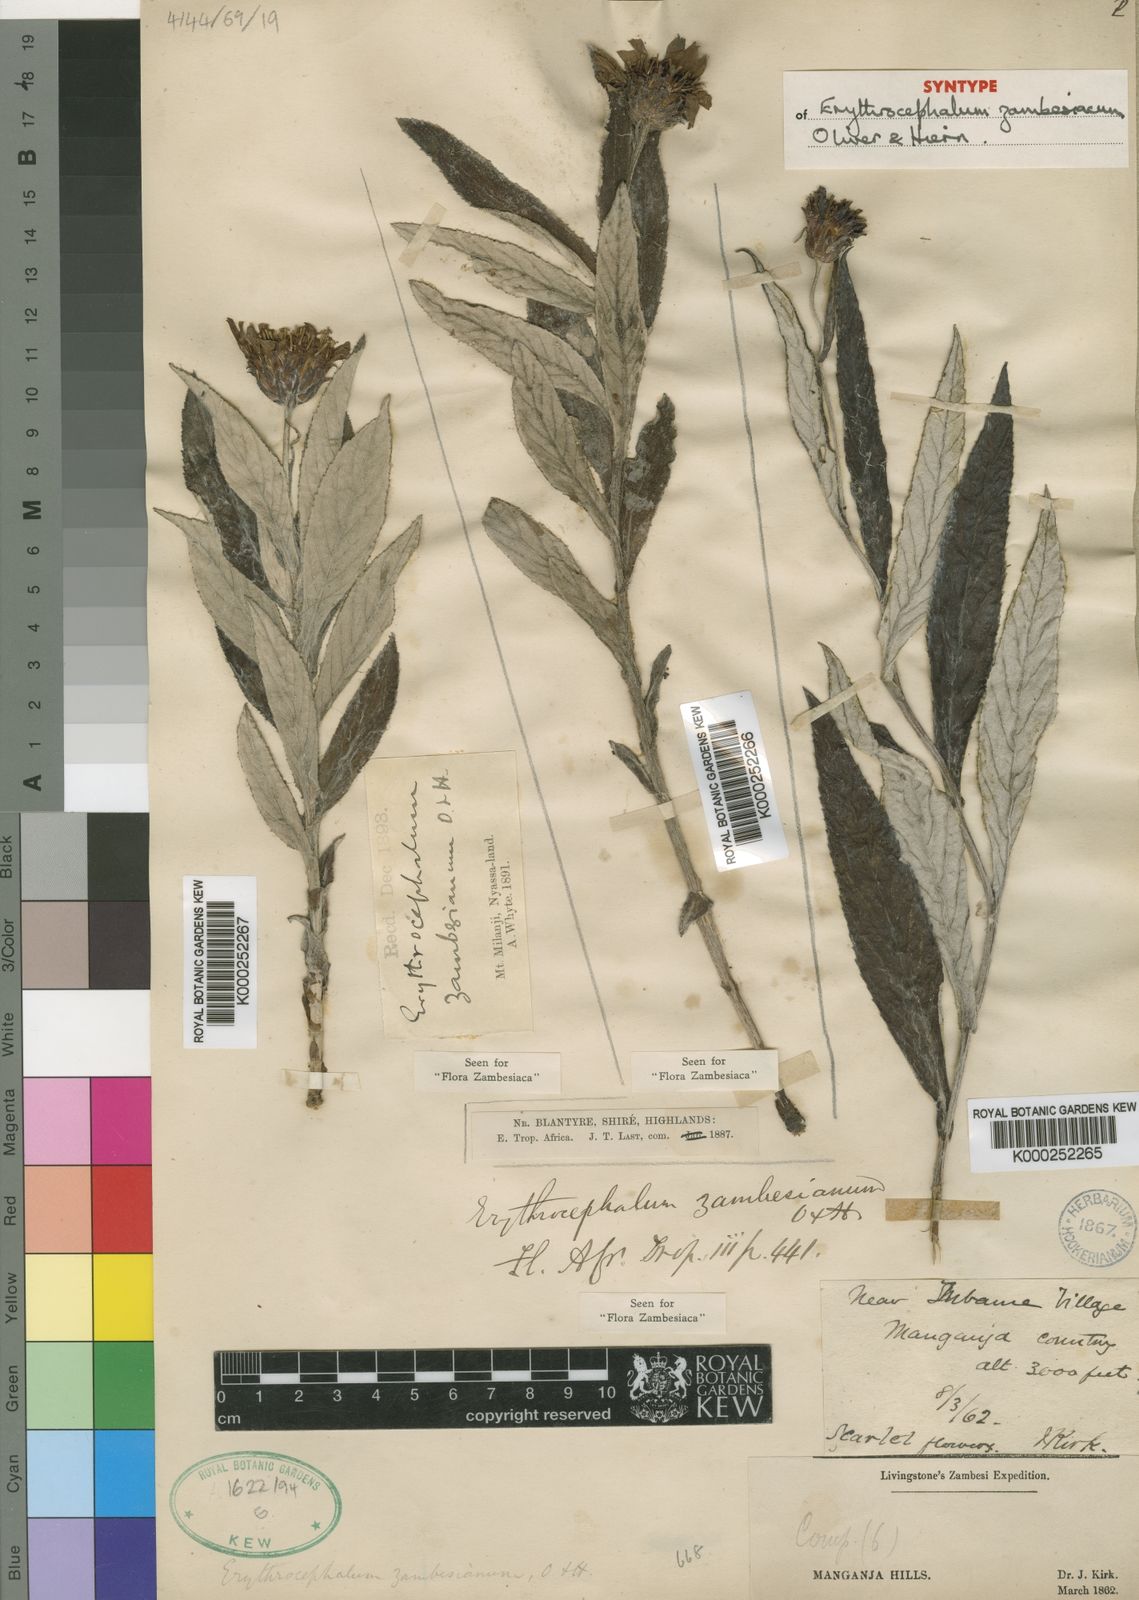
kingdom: Plantae
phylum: Tracheophyta
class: Magnoliopsida
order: Asterales
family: Asteraceae
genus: Erythrocephalum
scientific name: Erythrocephalum longifolium
